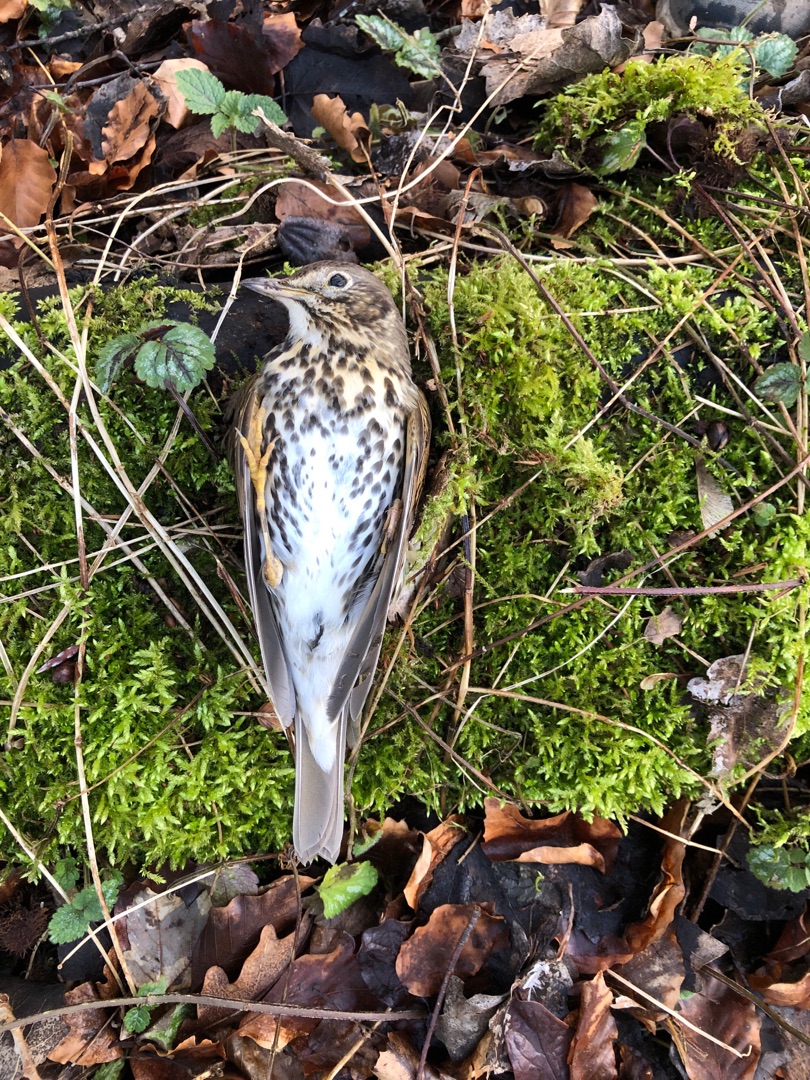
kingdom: Animalia
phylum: Chordata
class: Aves
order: Passeriformes
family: Turdidae
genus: Turdus
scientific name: Turdus philomelos
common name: Sangdrossel
